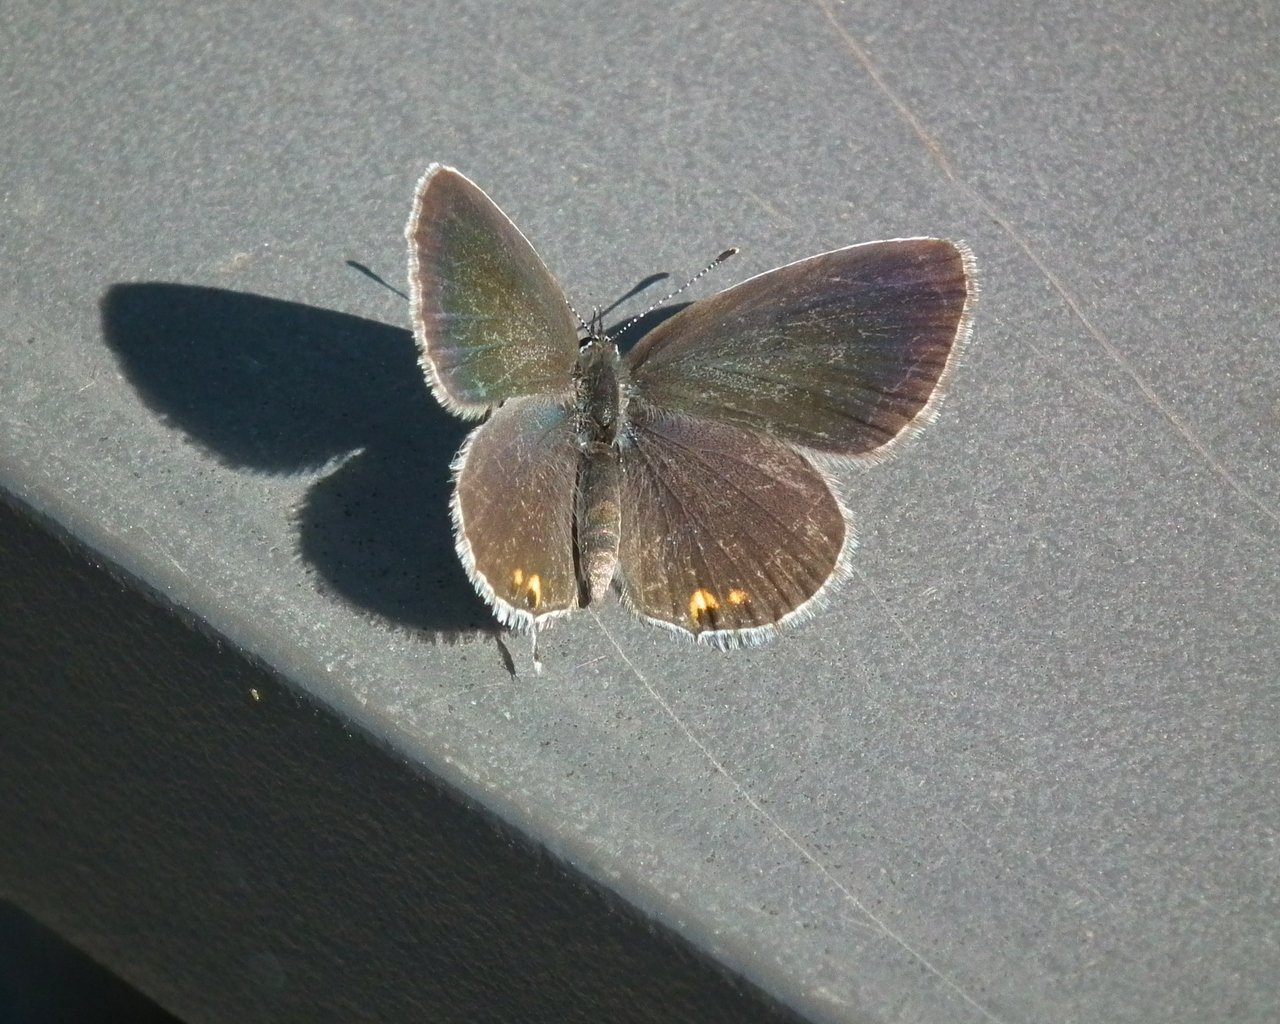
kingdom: Animalia
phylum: Arthropoda
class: Insecta
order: Lepidoptera
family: Lycaenidae
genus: Elkalyce
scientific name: Elkalyce comyntas
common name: Eastern Tailed-Blue
